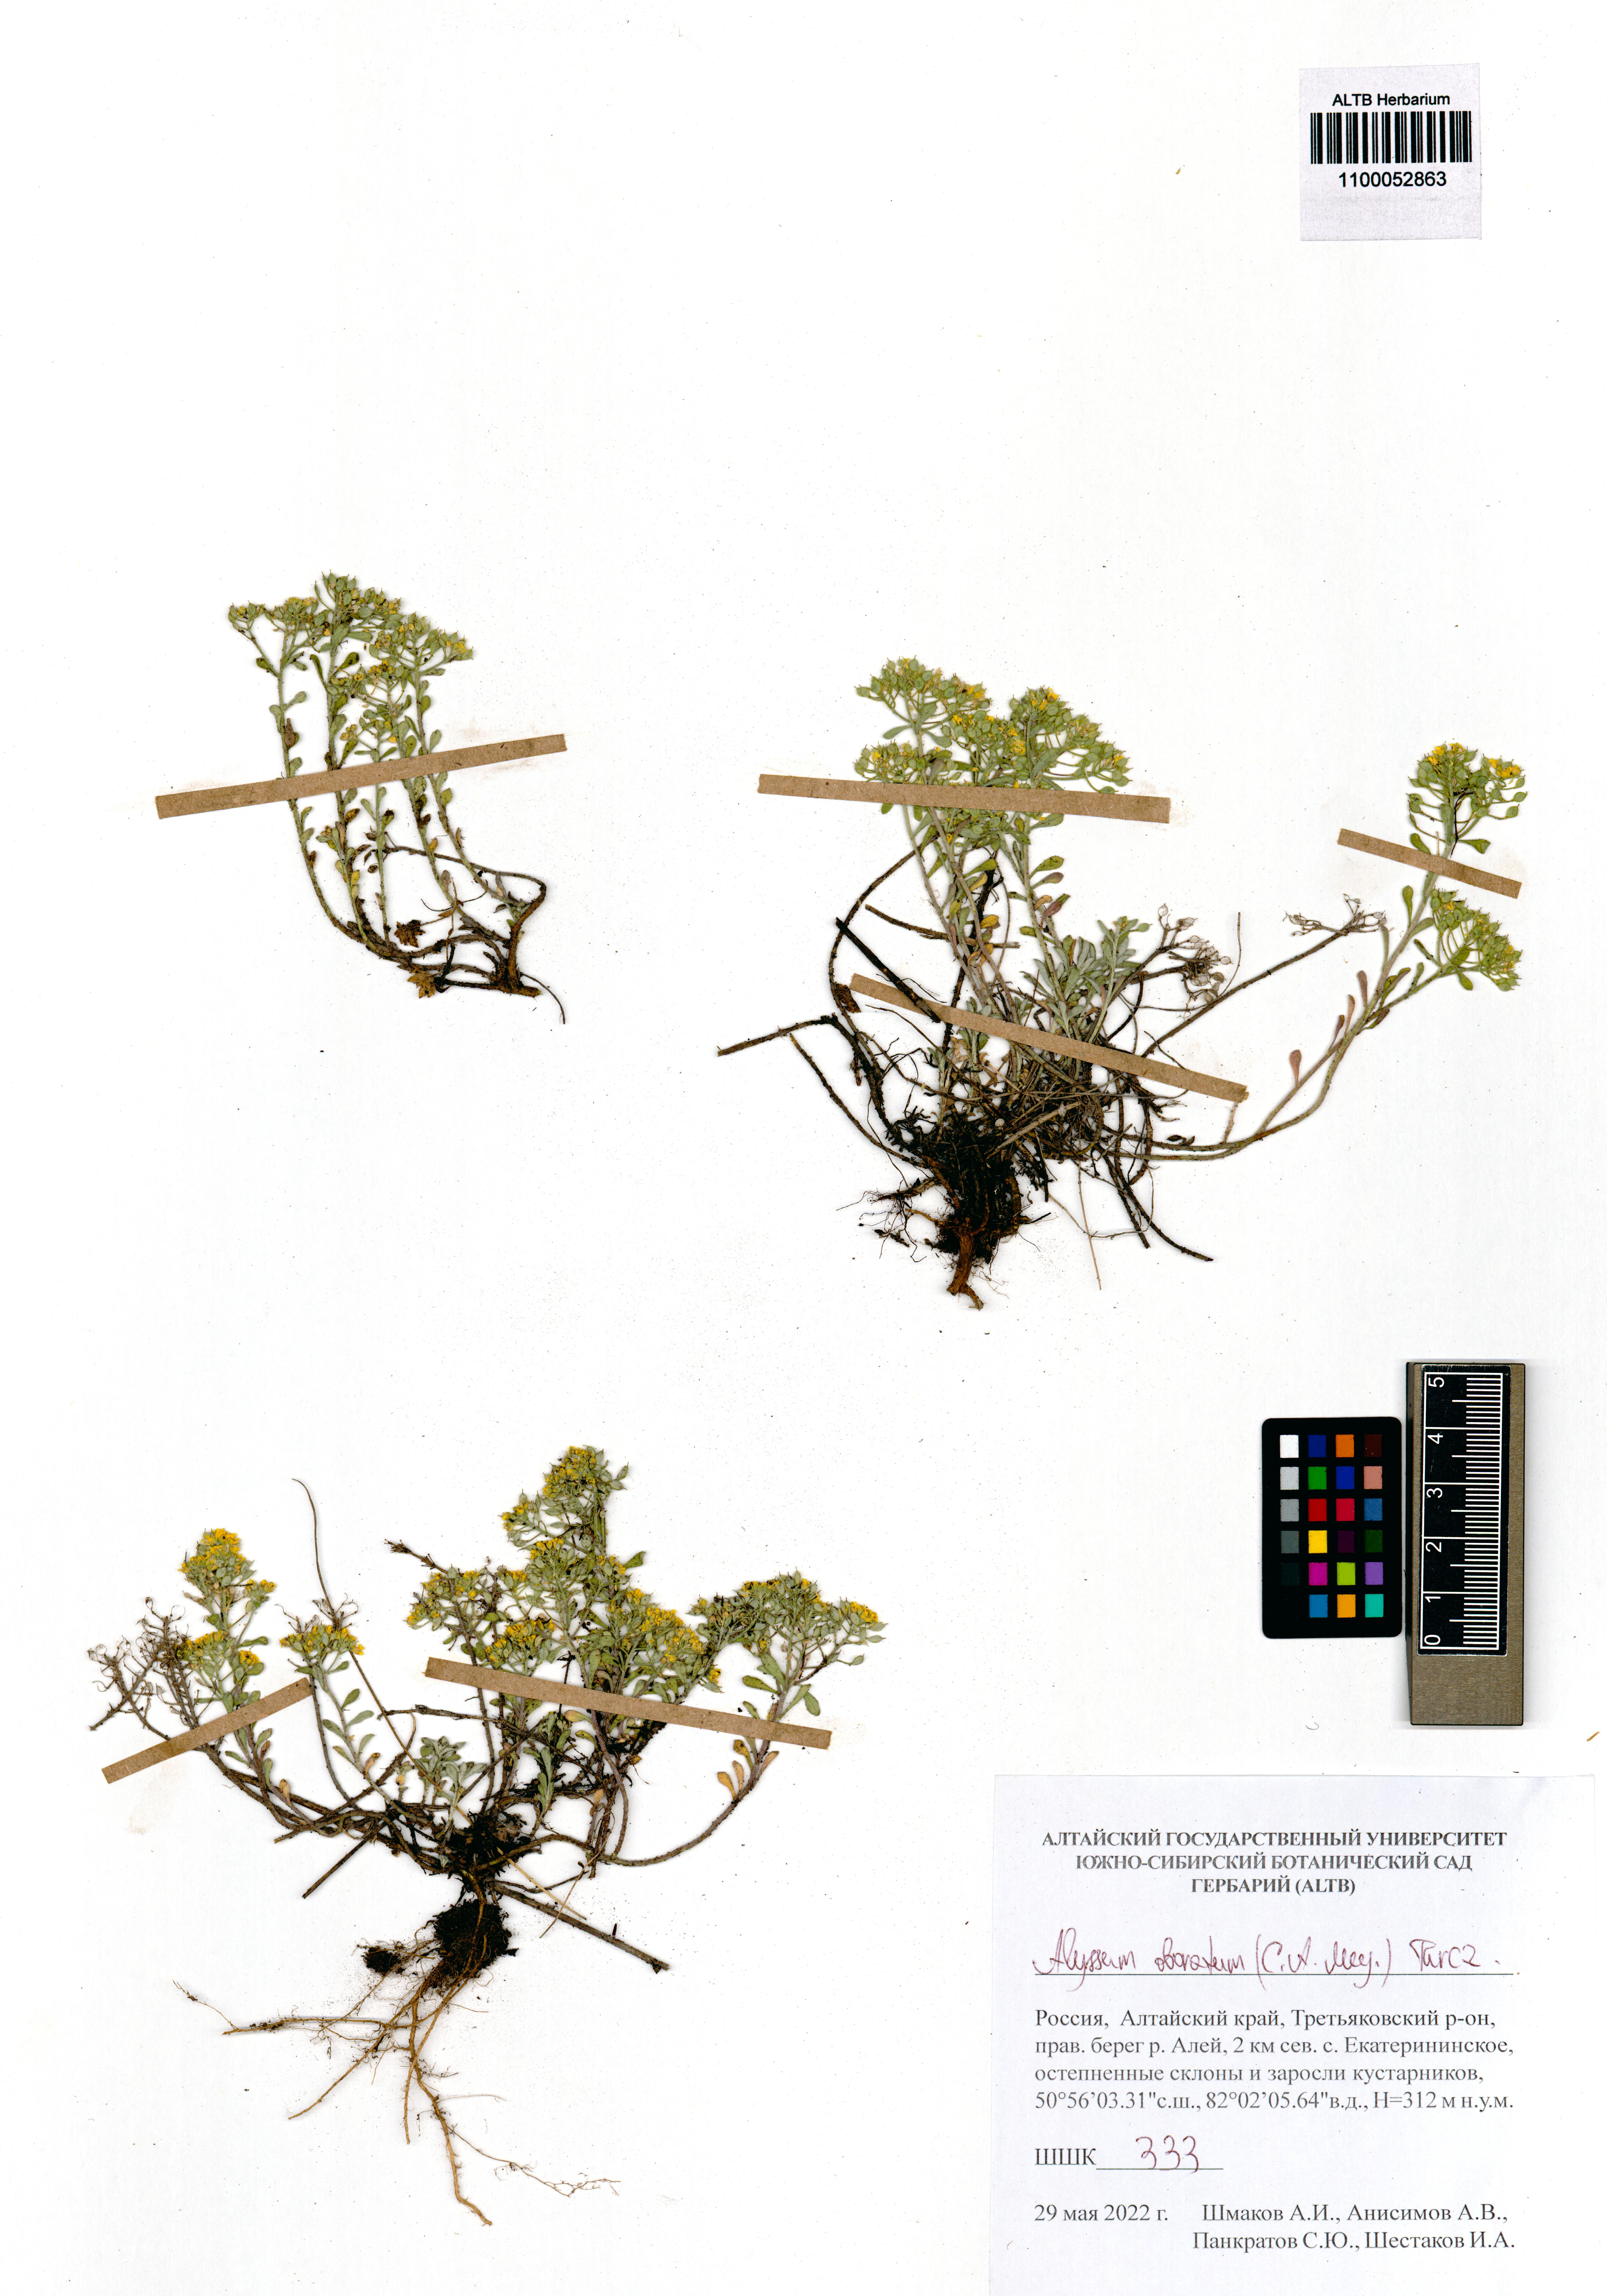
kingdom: Plantae
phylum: Tracheophyta
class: Magnoliopsida
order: Brassicales
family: Brassicaceae
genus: Odontarrhena
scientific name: Odontarrhena obovata
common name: American alyssum
